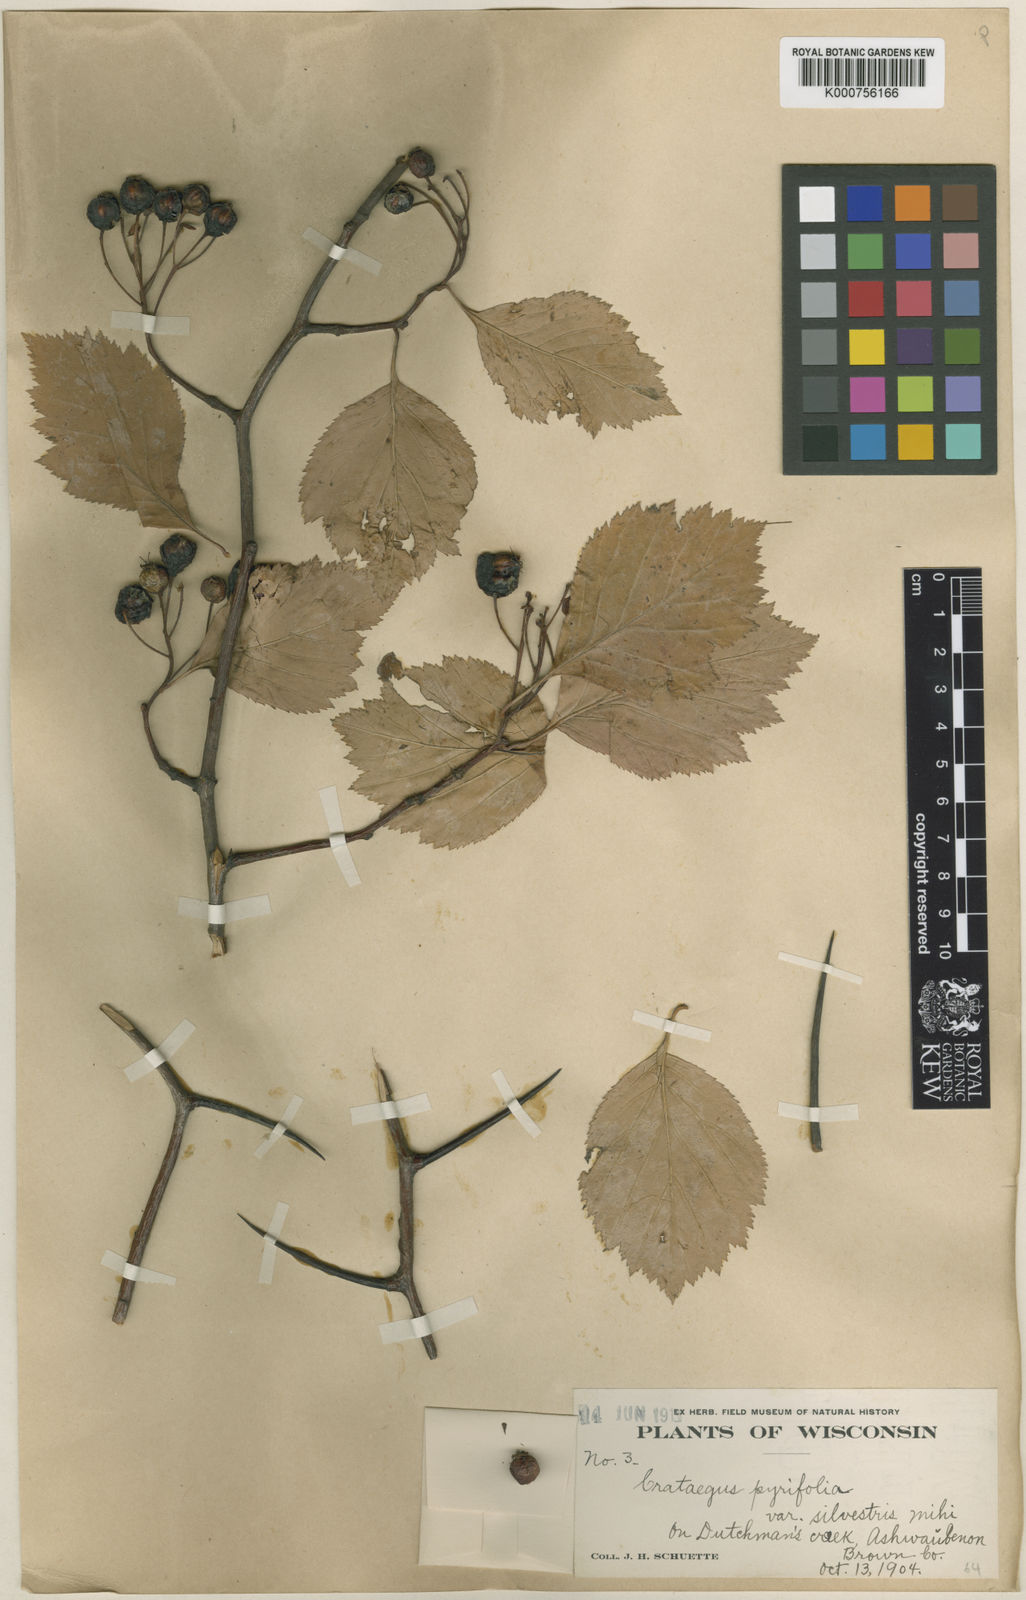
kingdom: Plantae
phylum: Tracheophyta
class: Magnoliopsida
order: Rosales
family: Rosaceae
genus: Crataegus
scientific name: Crataegus calpodendron
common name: Pear hawthorn
